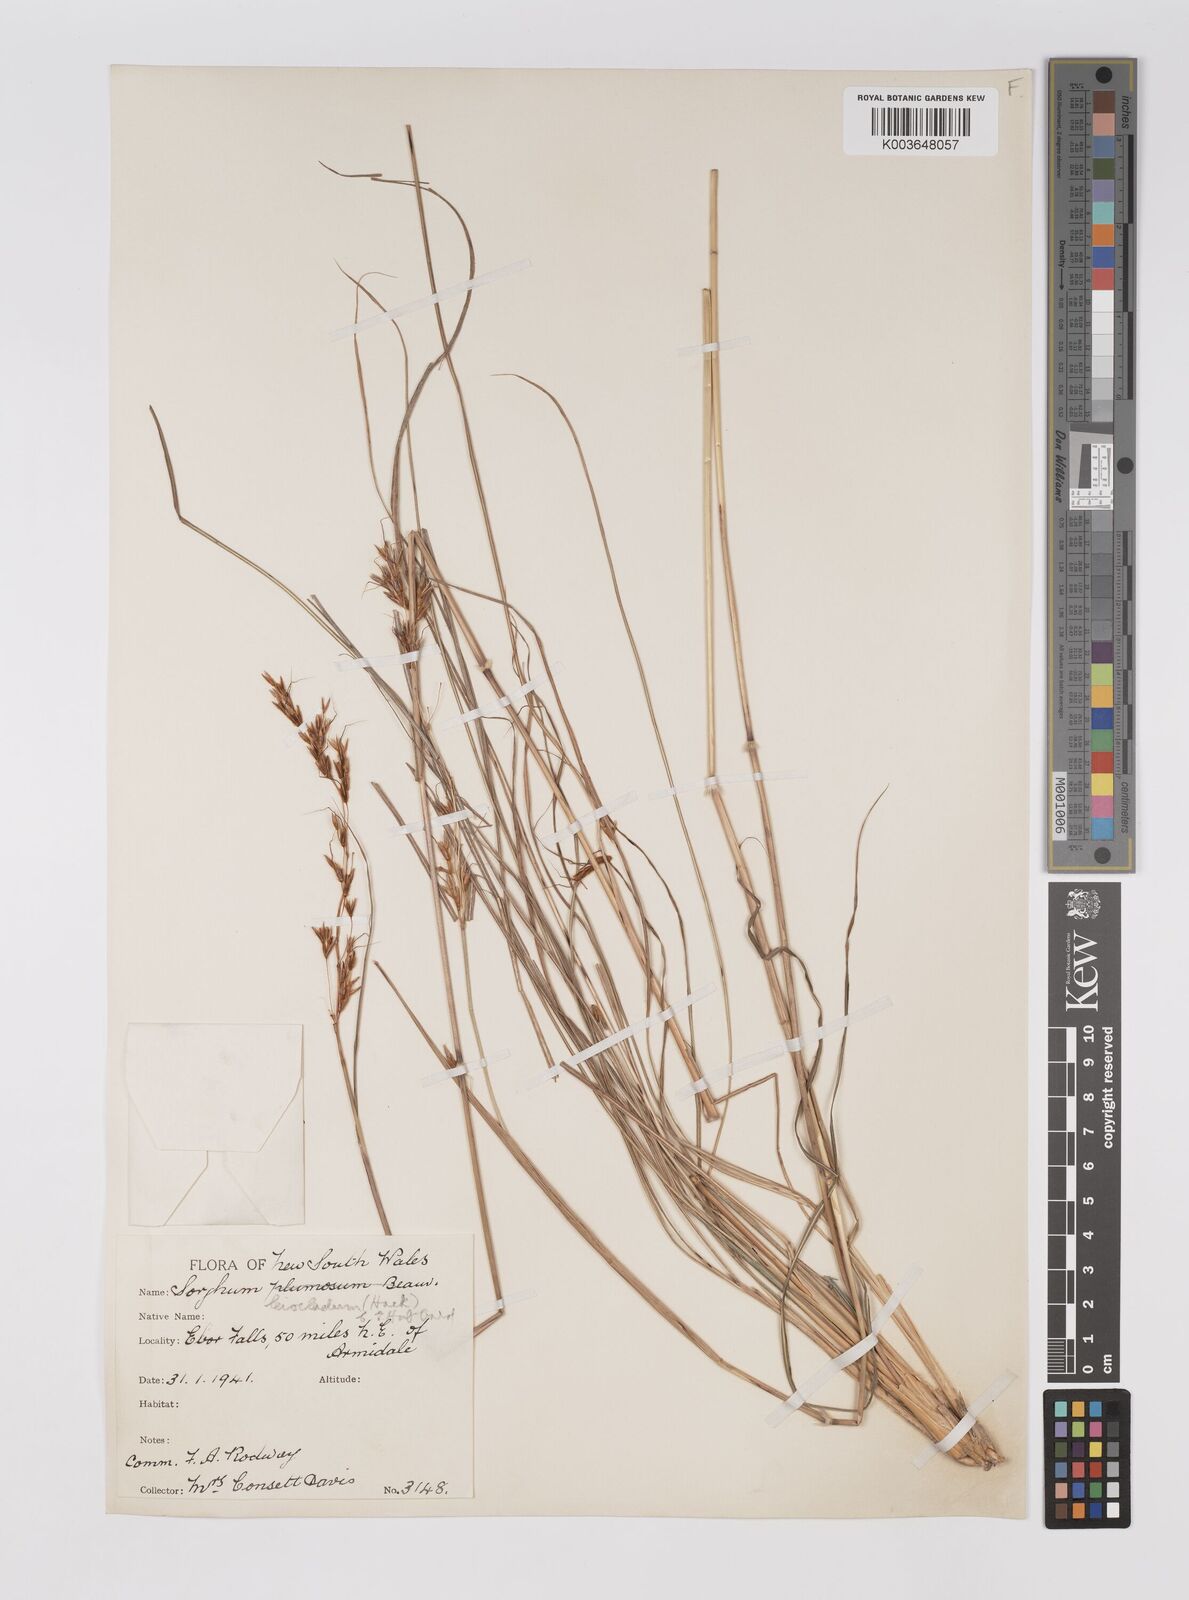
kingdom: Plantae
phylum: Tracheophyta
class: Liliopsida
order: Poales
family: Poaceae
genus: Sarga
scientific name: Sarga leioclada
